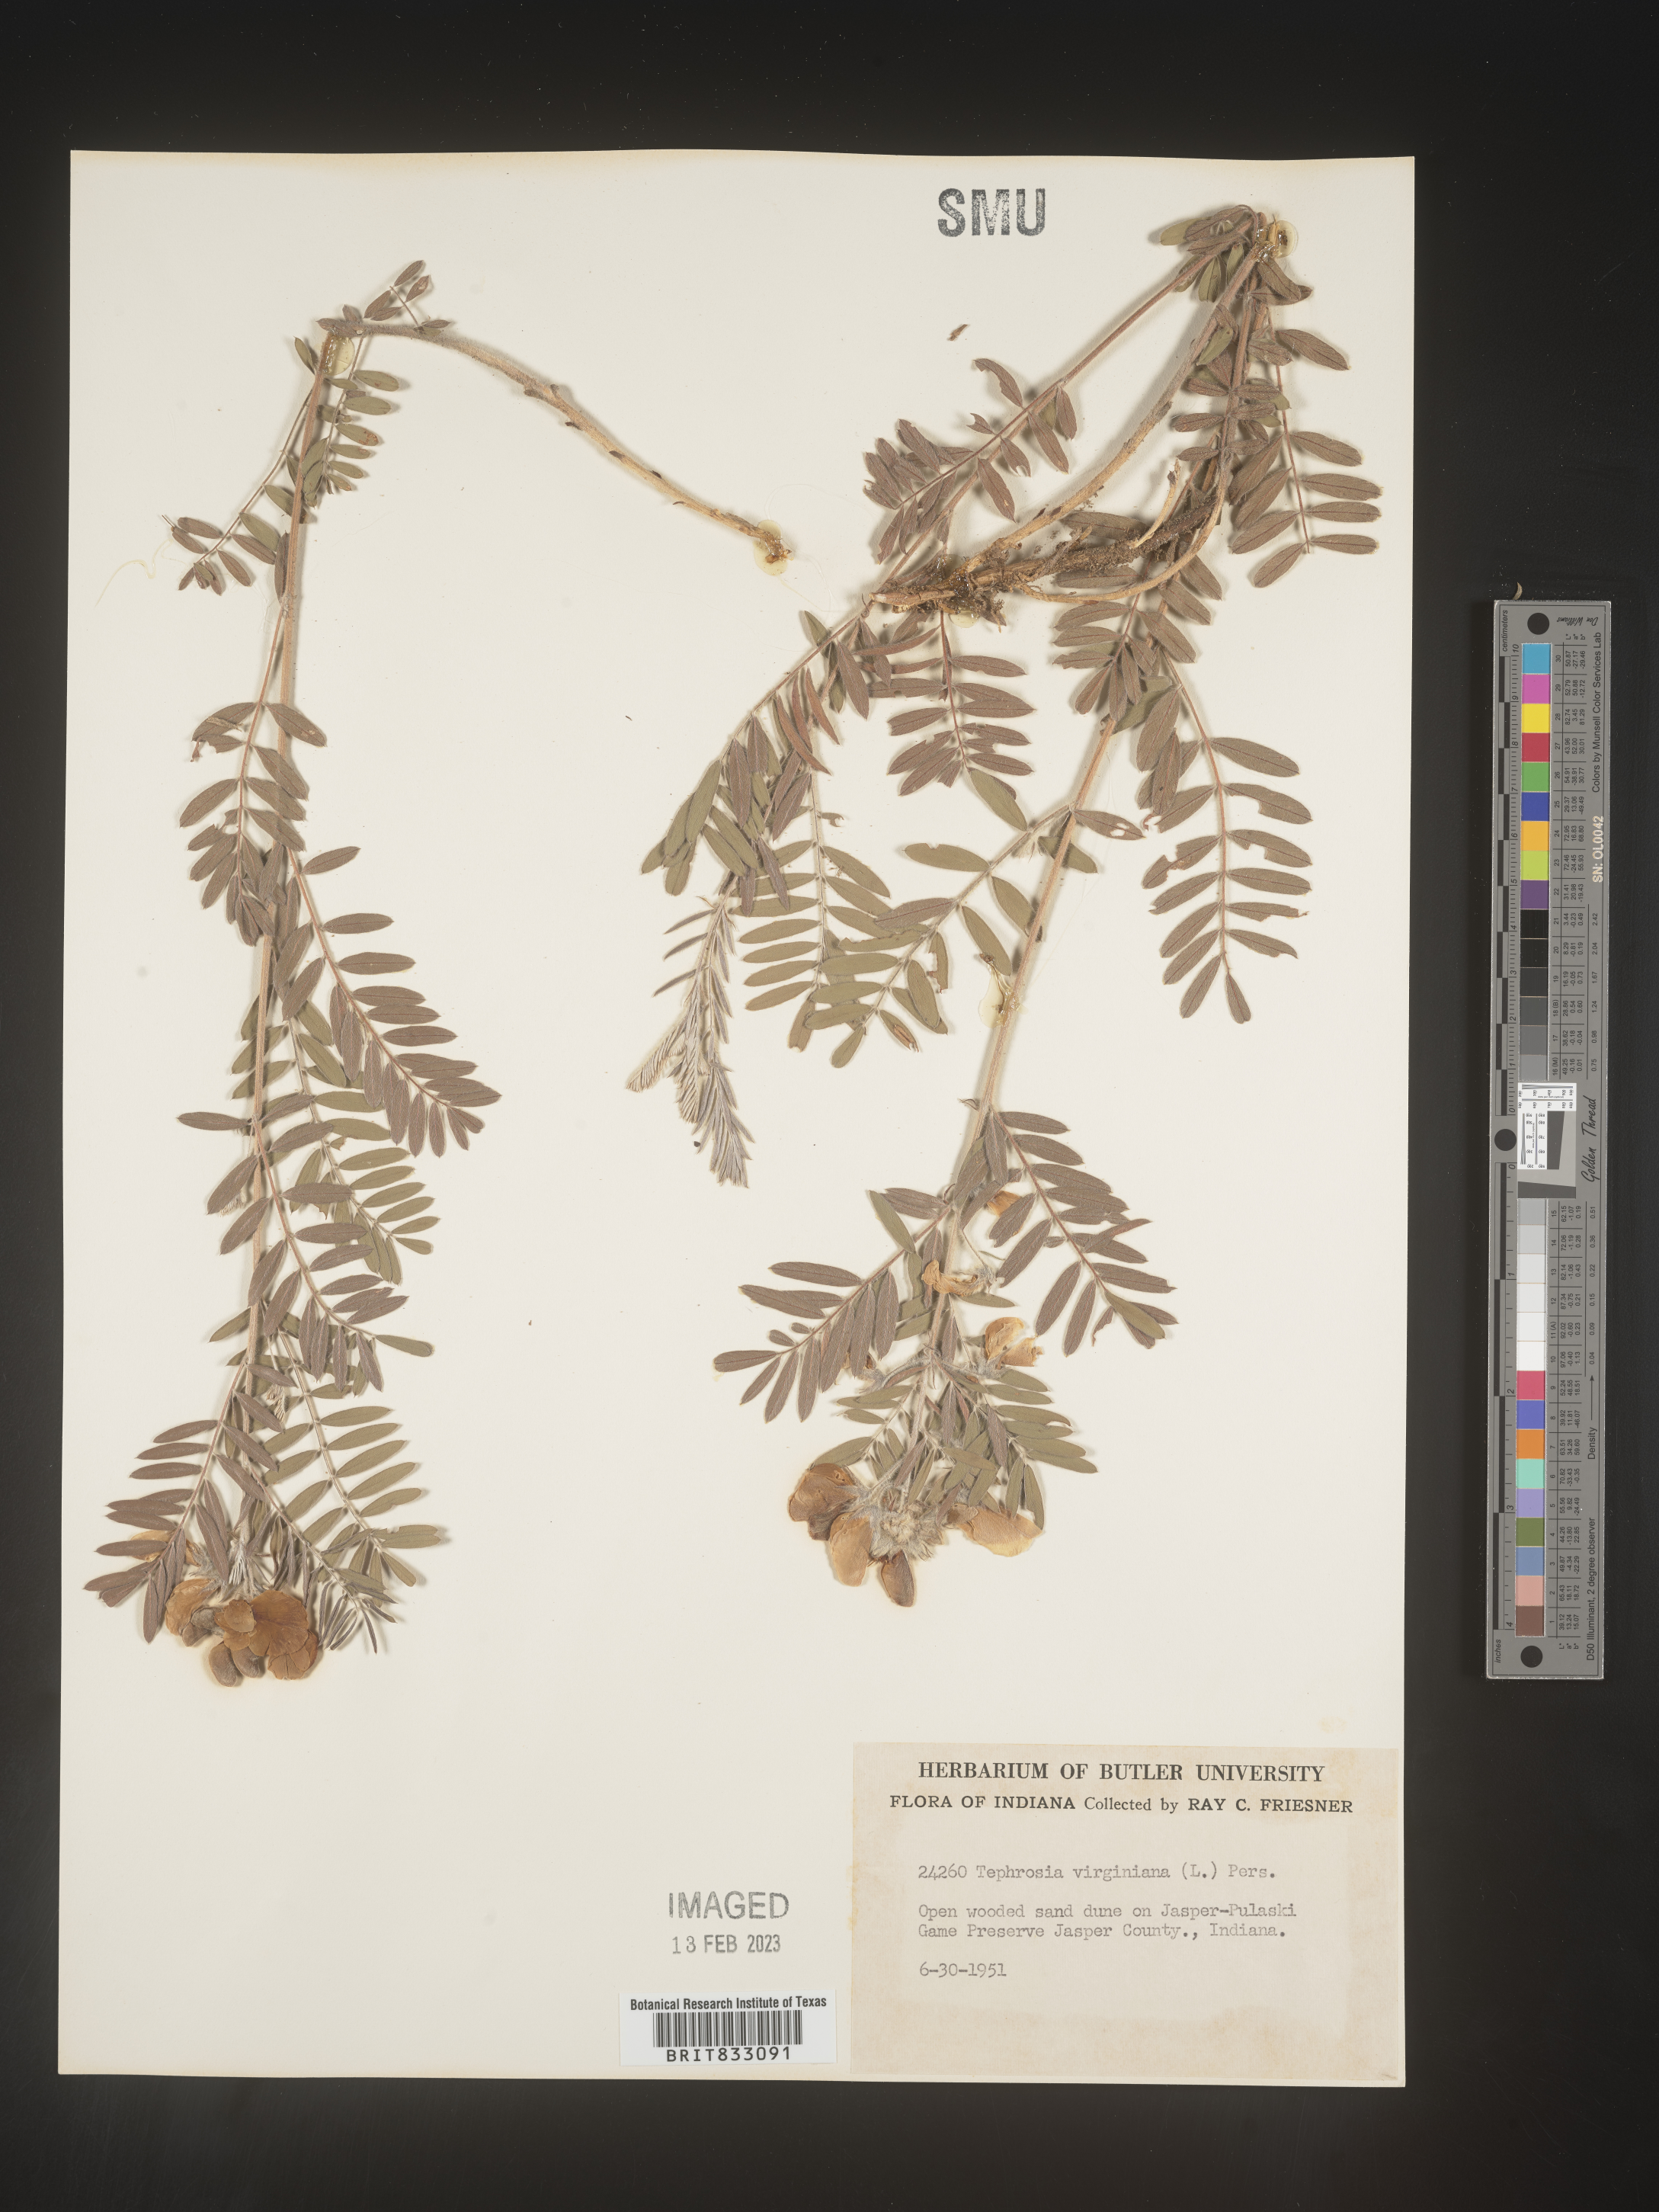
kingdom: Plantae
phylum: Tracheophyta
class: Magnoliopsida
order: Fabales
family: Fabaceae
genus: Tephrosia
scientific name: Tephrosia virginiana
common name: Rabbit-pea
